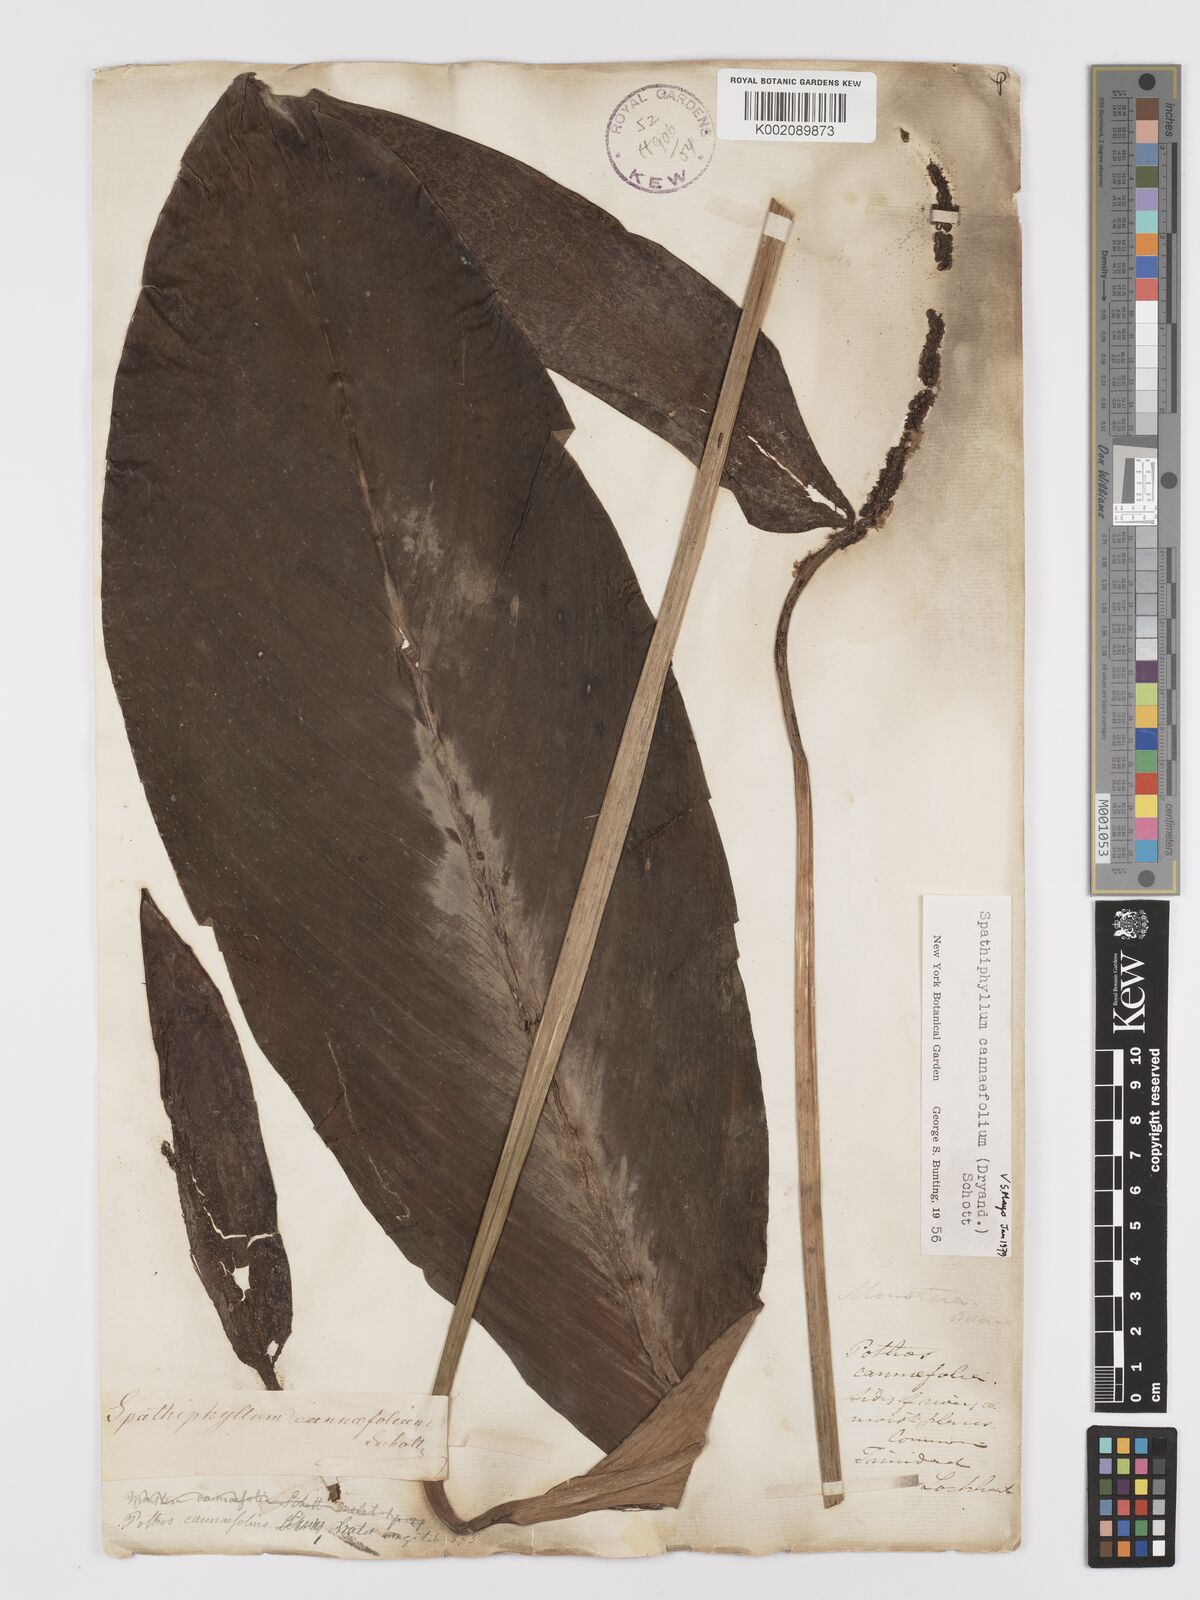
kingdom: Plantae
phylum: Tracheophyta
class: Liliopsida
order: Alismatales
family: Araceae
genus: Spathiphyllum
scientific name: Spathiphyllum cannifolium
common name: Spatheflower
